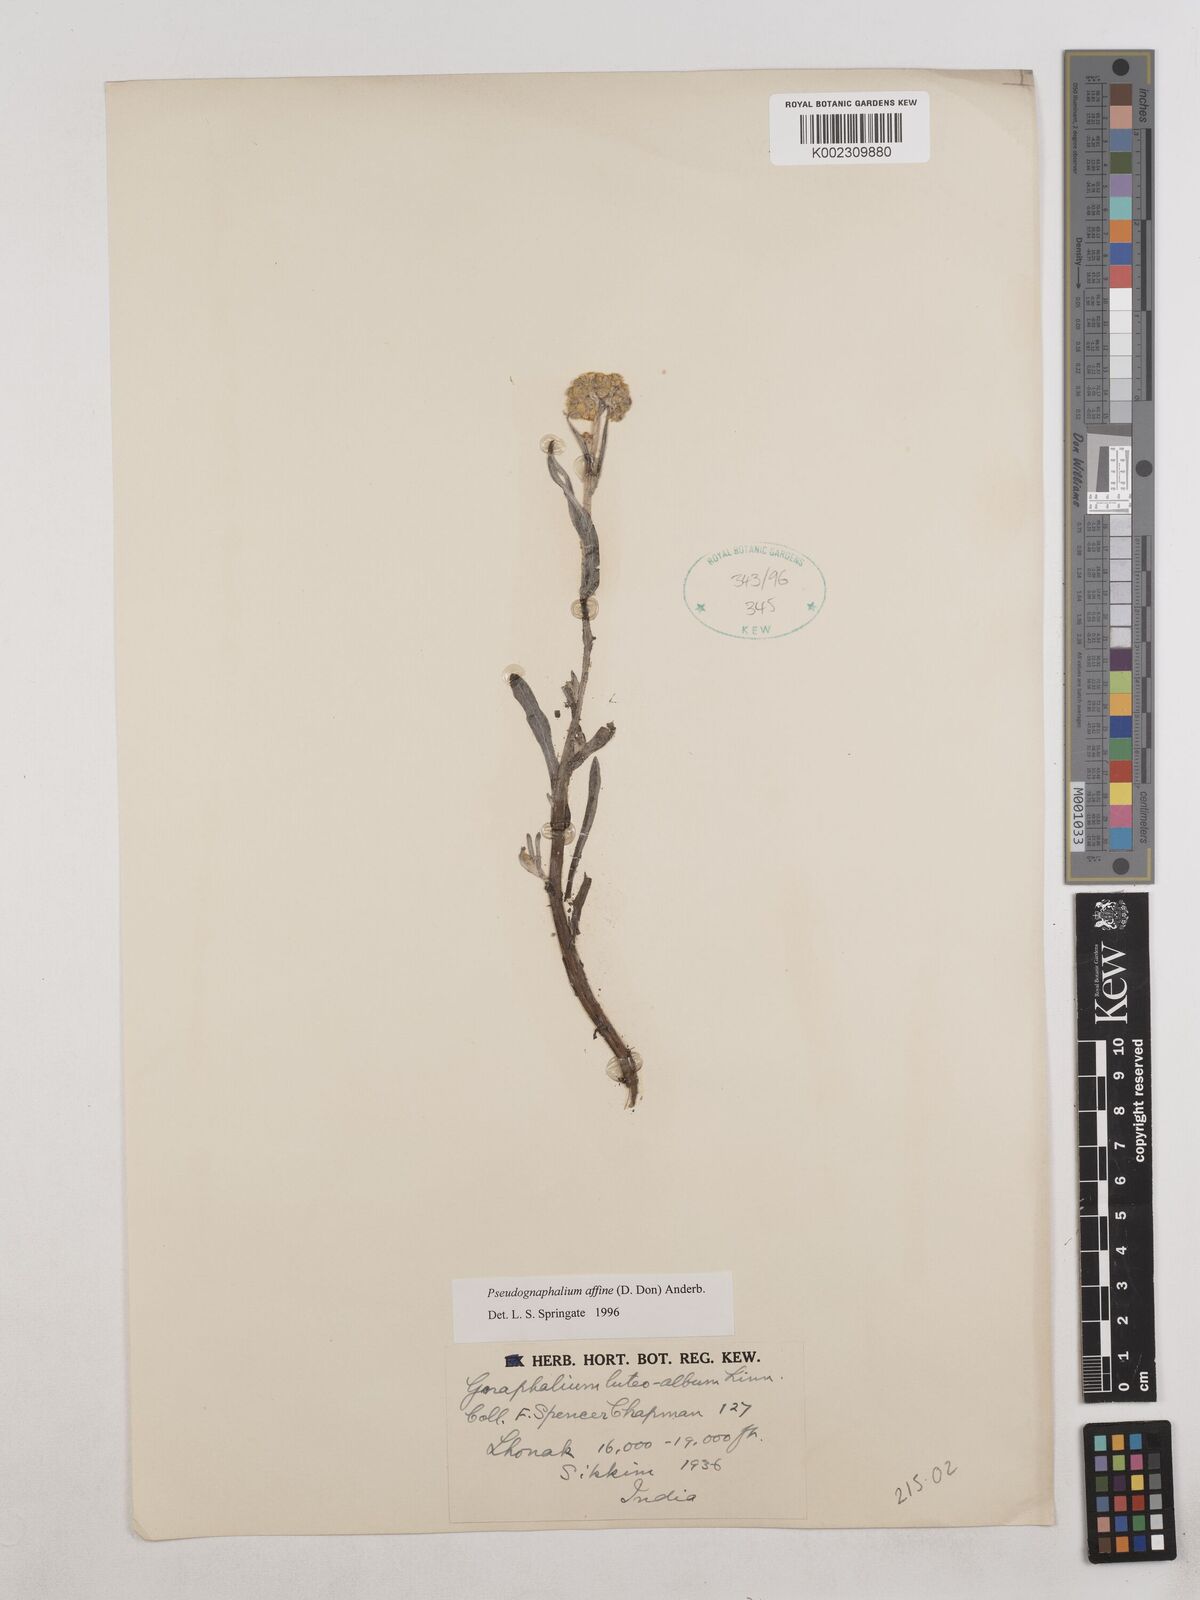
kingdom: Plantae
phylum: Tracheophyta
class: Magnoliopsida
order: Asterales
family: Asteraceae
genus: Helichrysum
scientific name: Helichrysum luteoalbum
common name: Daisy
